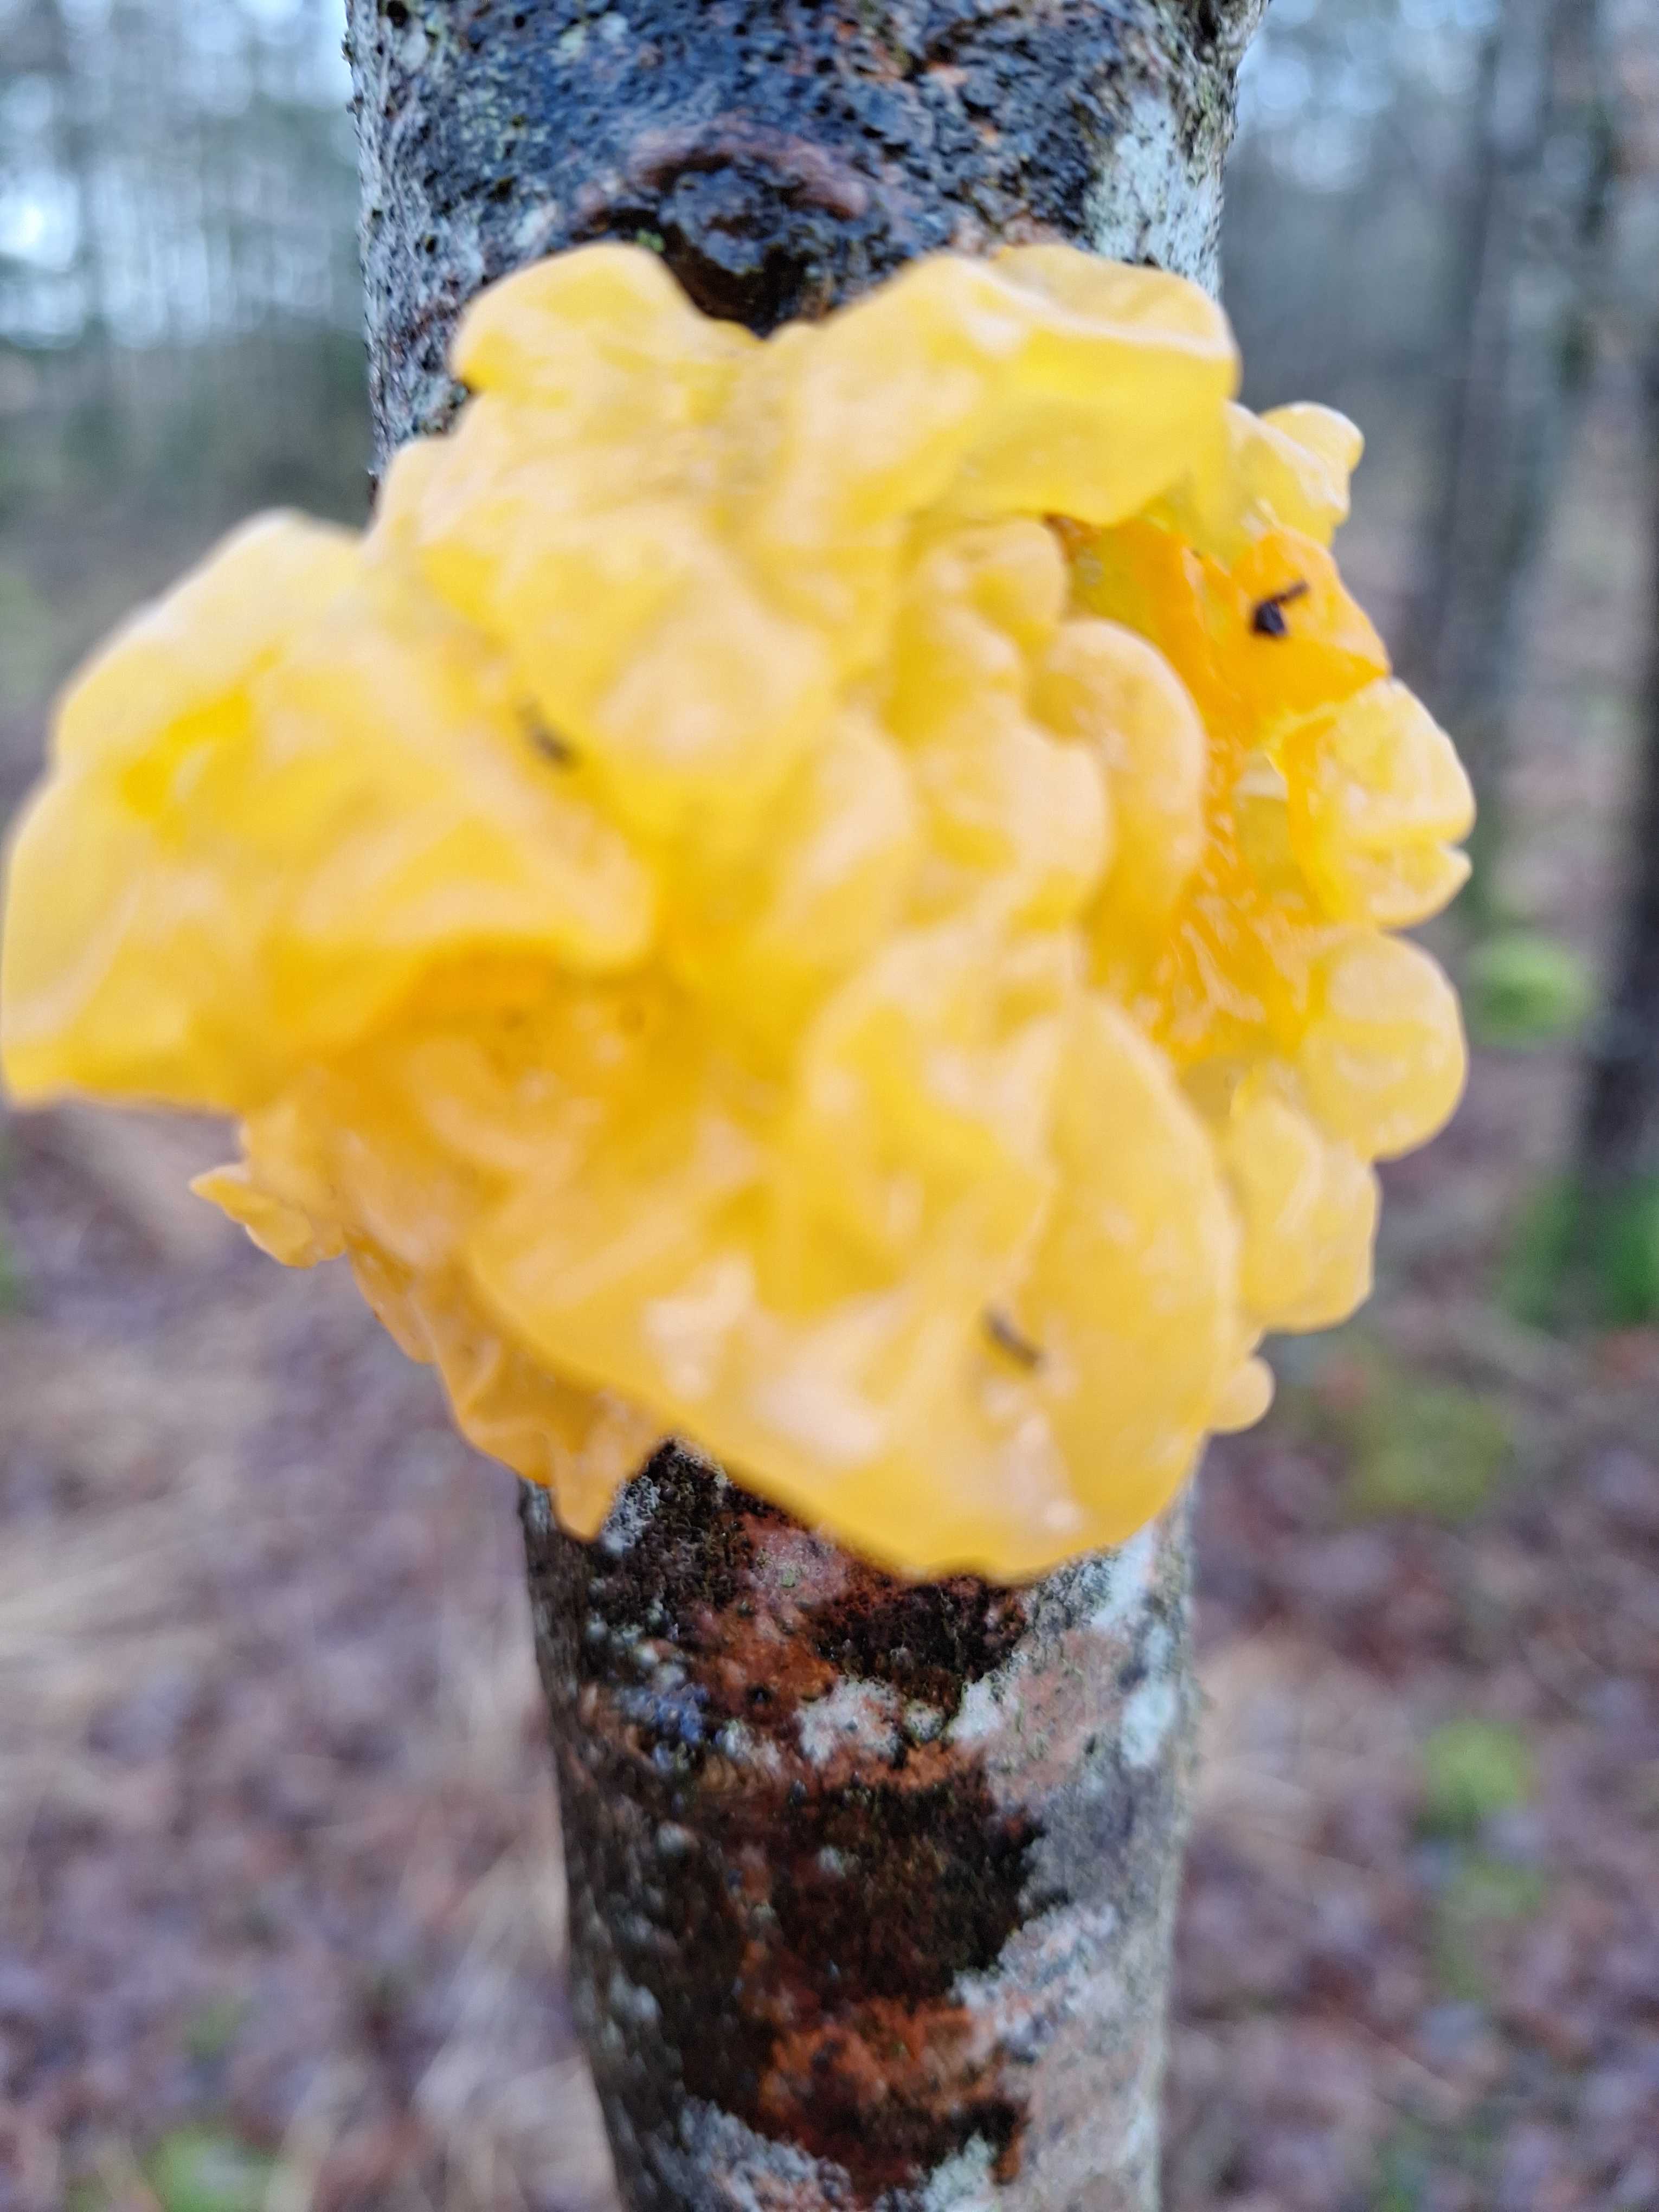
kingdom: Fungi
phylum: Basidiomycota
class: Tremellomycetes
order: Tremellales
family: Tremellaceae
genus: Tremella
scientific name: Tremella mesenterica
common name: gul bævresvamp
